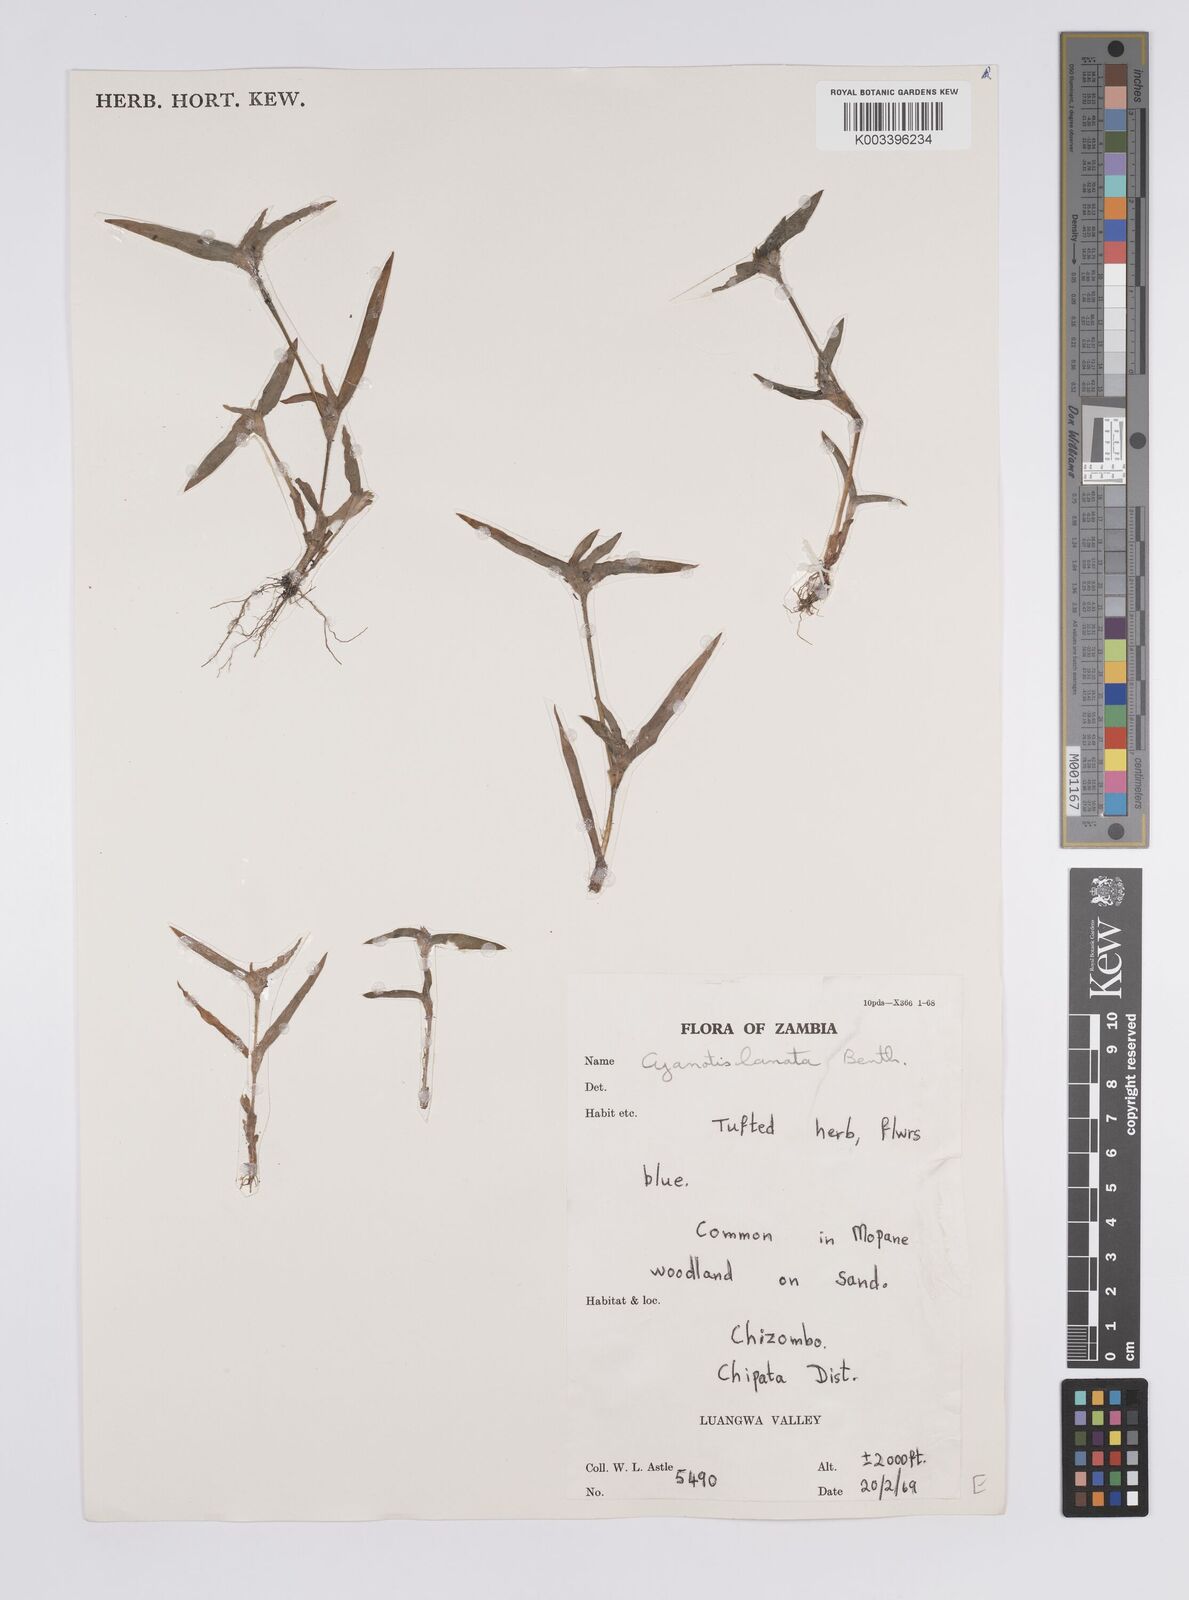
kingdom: Plantae
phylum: Tracheophyta
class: Liliopsida
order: Commelinales
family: Commelinaceae
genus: Cyanotis
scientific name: Cyanotis lanata
